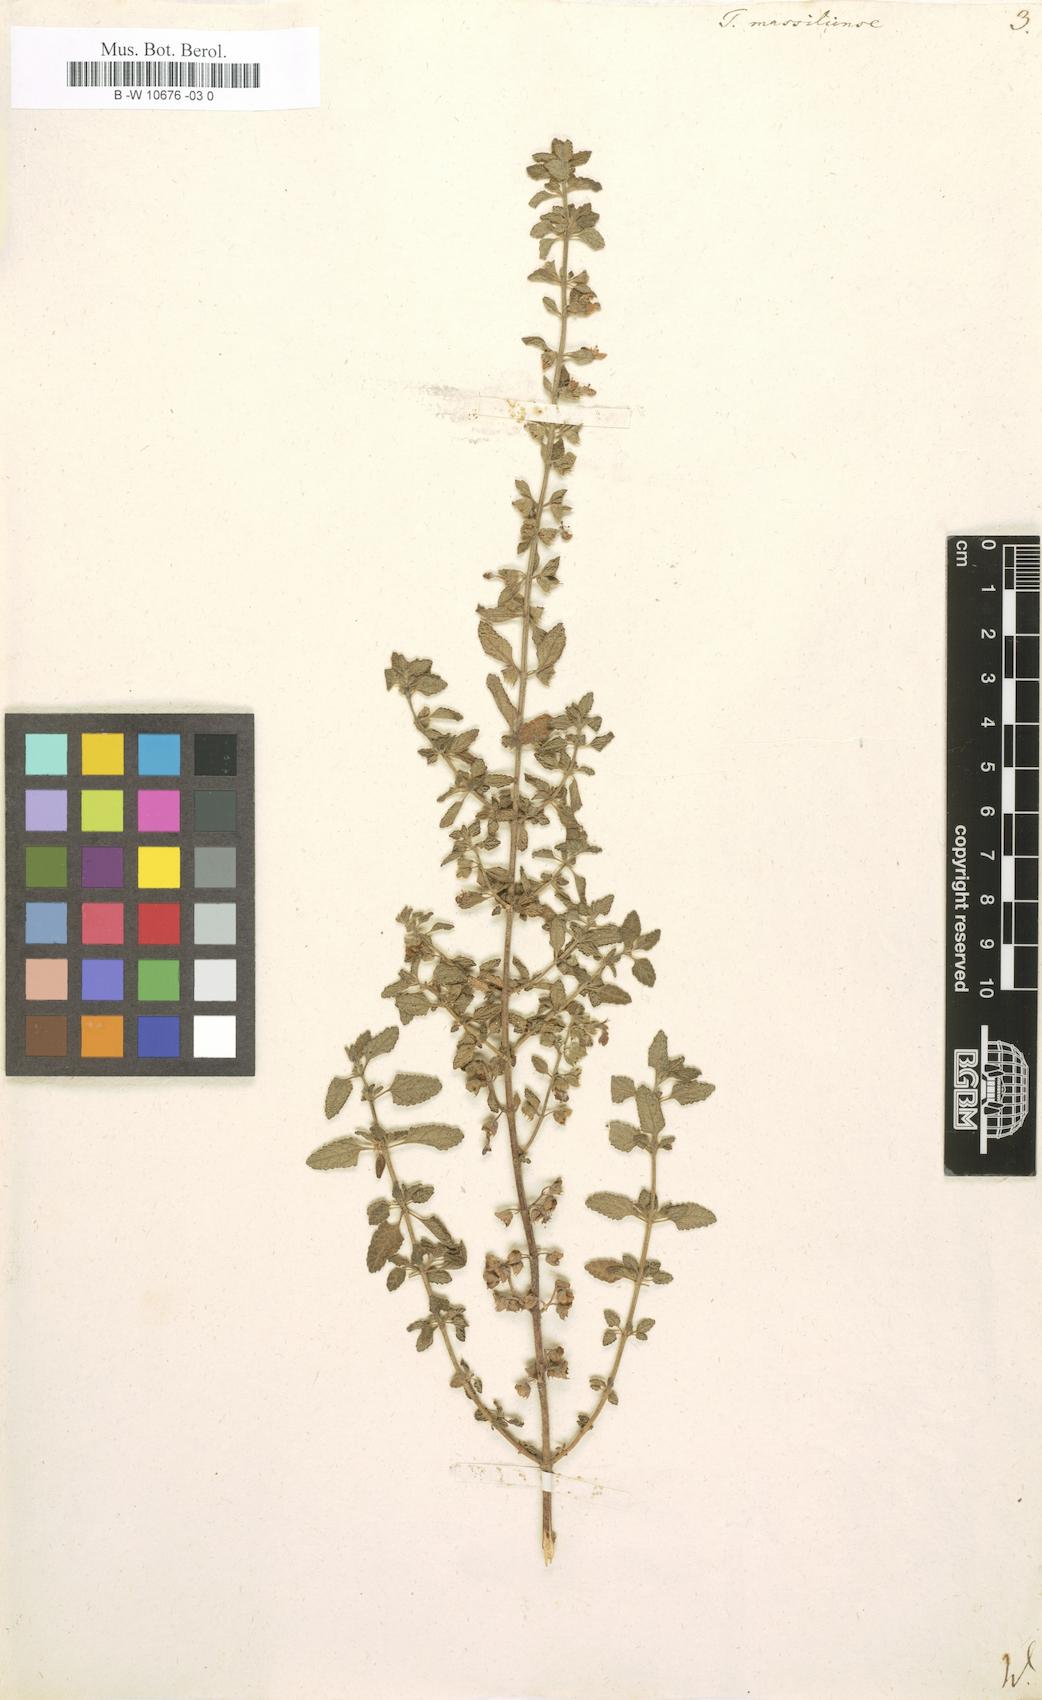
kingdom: Plantae
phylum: Tracheophyta
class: Magnoliopsida
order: Lamiales
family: Lamiaceae
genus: Teucrium
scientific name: Teucrium massiliense
